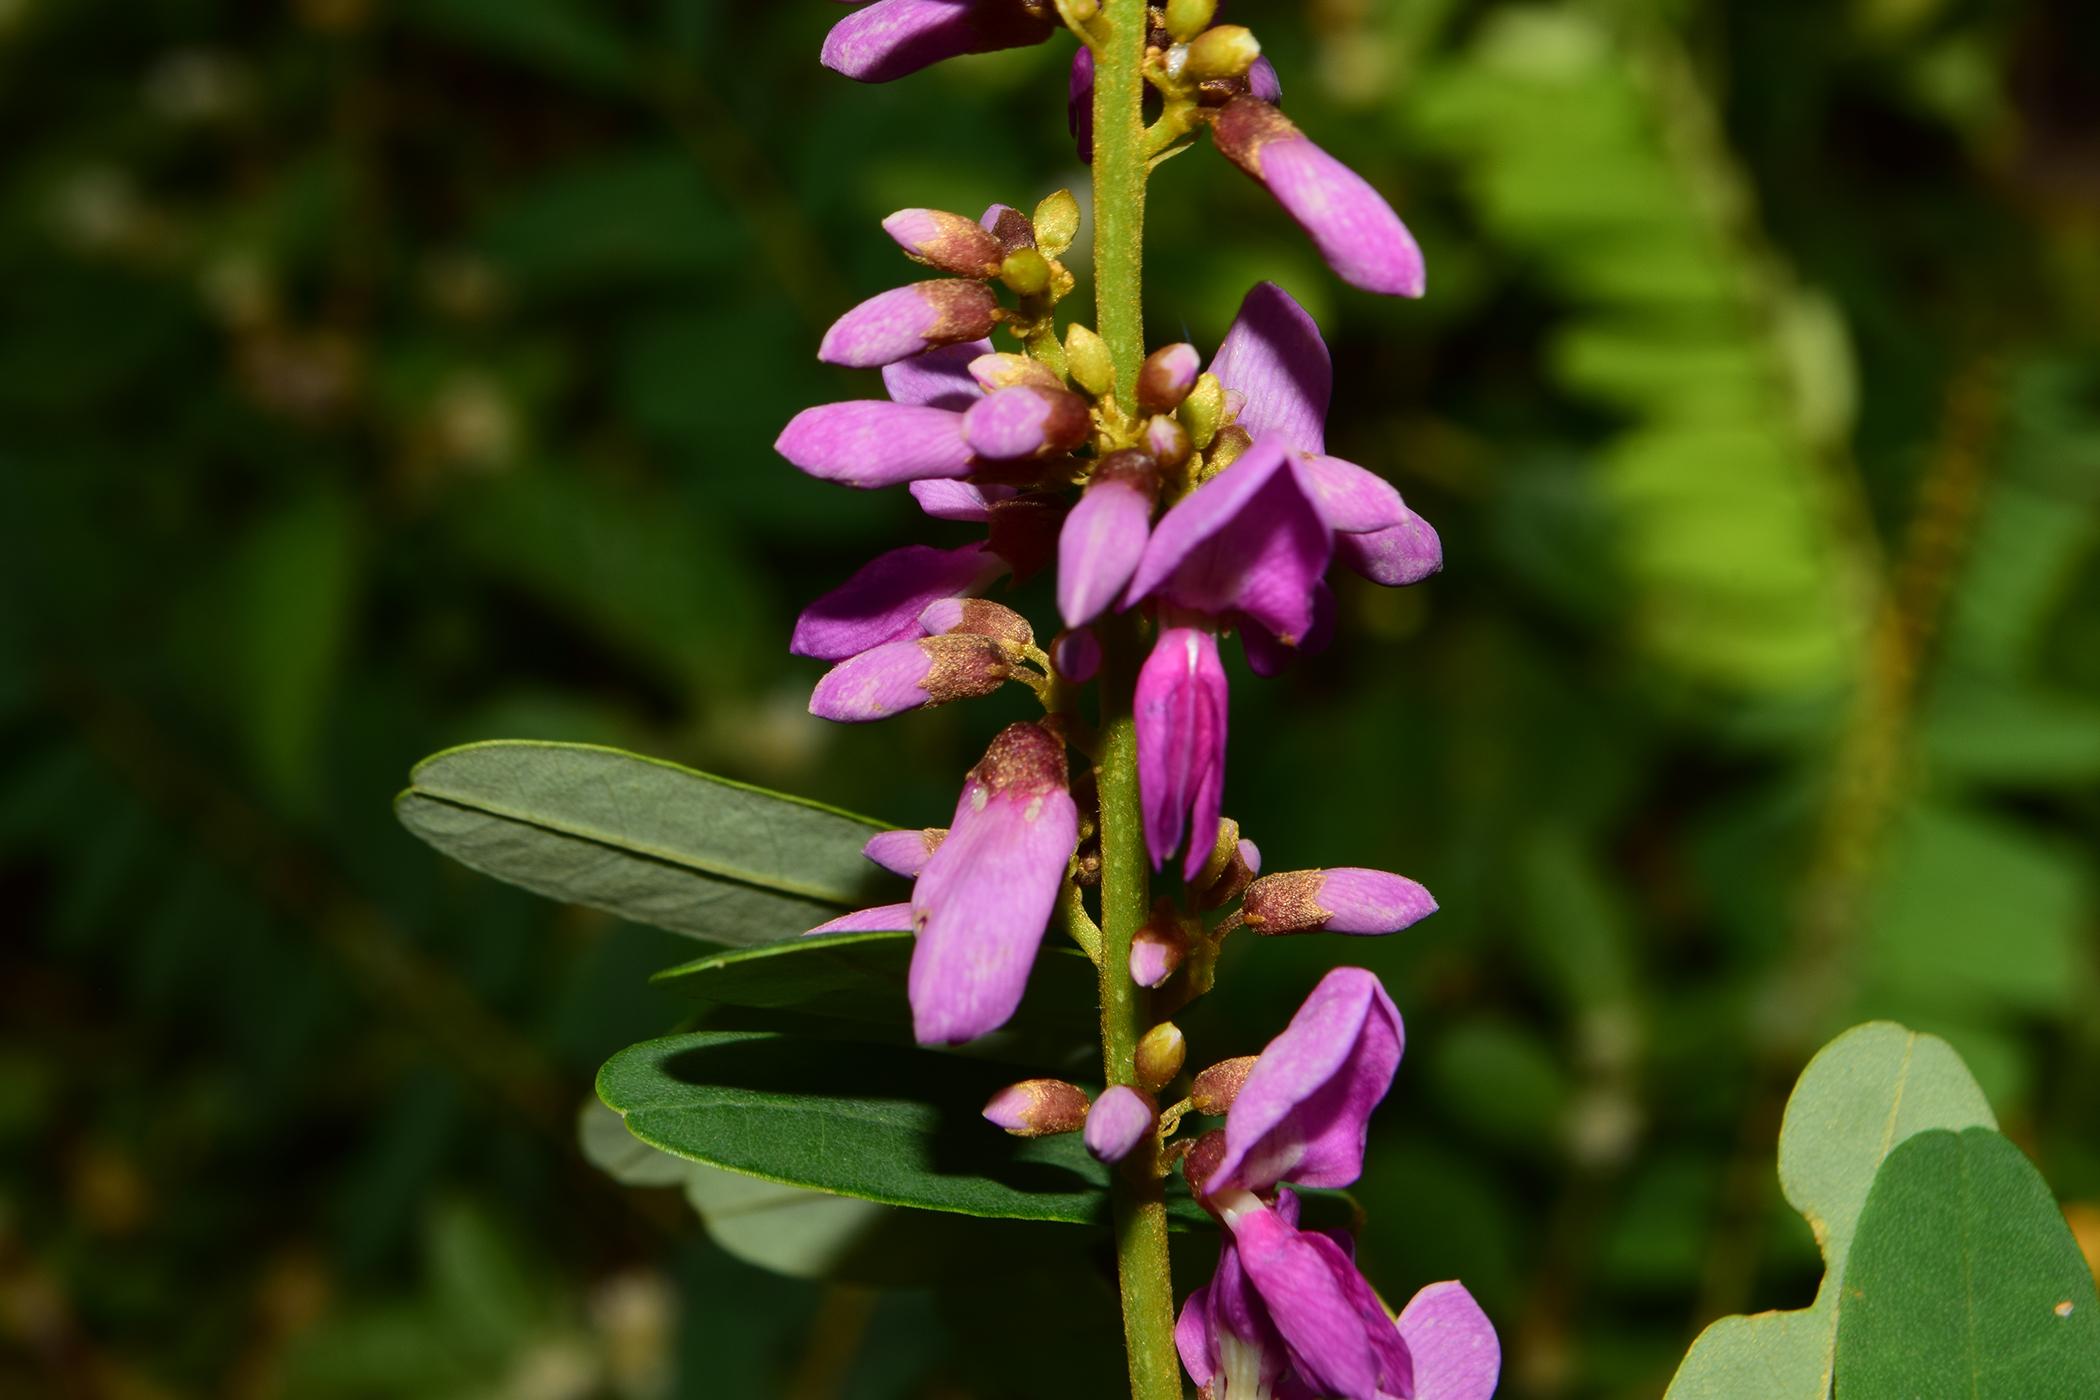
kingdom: Plantae
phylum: Tracheophyta
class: Magnoliopsida
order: Fabales
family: Fabaceae
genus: Brachypterum
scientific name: Brachypterum microphyllum
